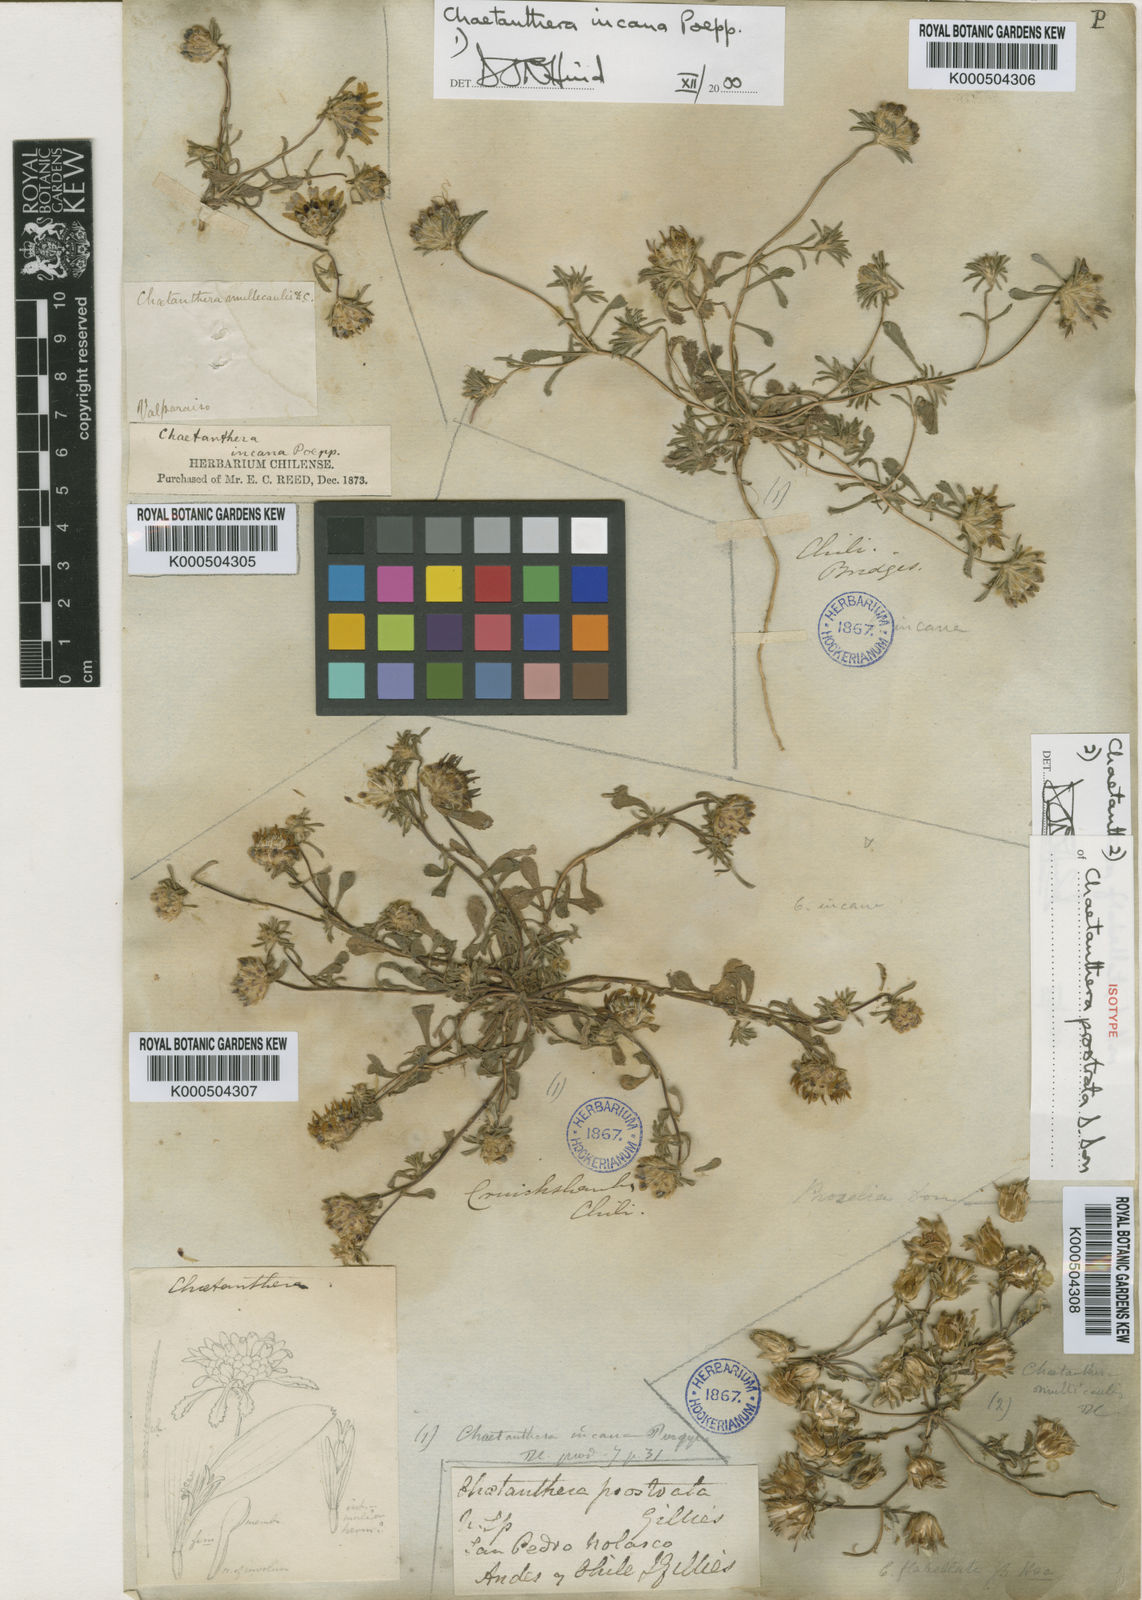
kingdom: Plantae
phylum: Tracheophyta
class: Magnoliopsida
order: Asterales
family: Asteraceae
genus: Chaetanthera
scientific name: Chaetanthera flabellata
